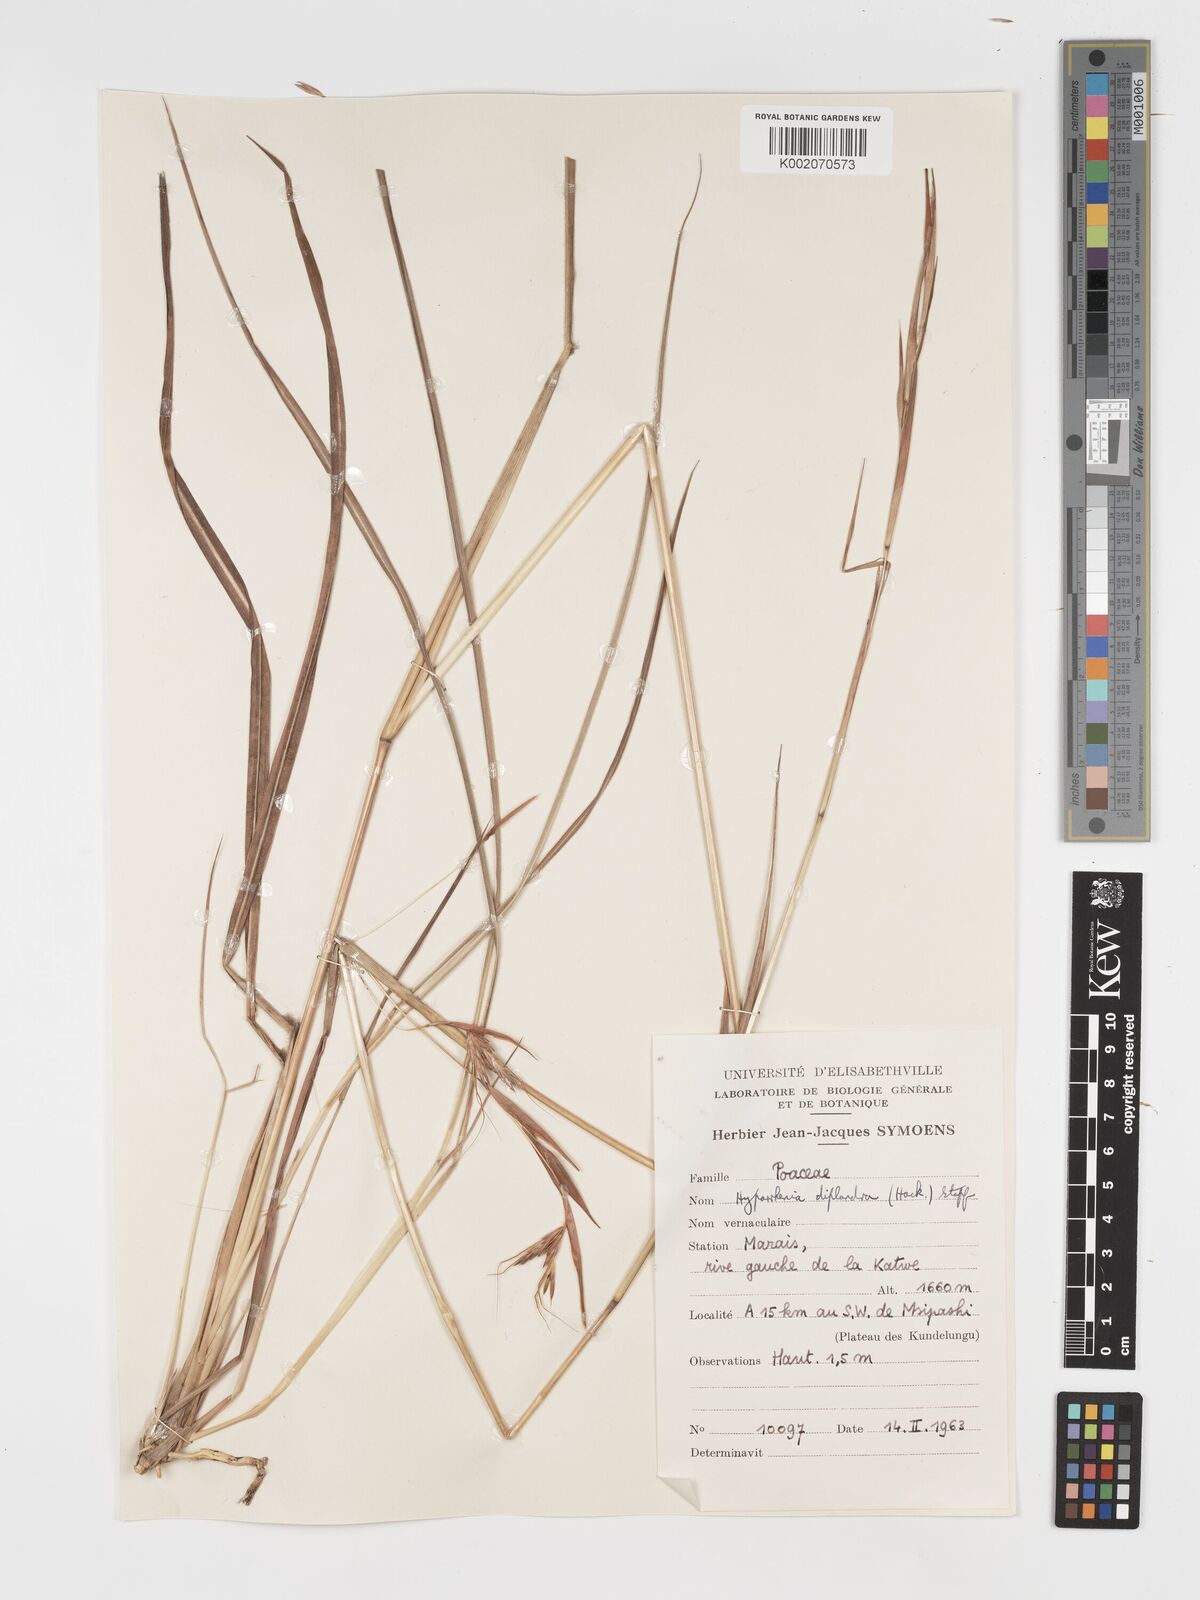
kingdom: Plantae
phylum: Tracheophyta
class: Liliopsida
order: Poales
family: Poaceae
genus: Hyparrhenia
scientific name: Hyparrhenia diplandra
